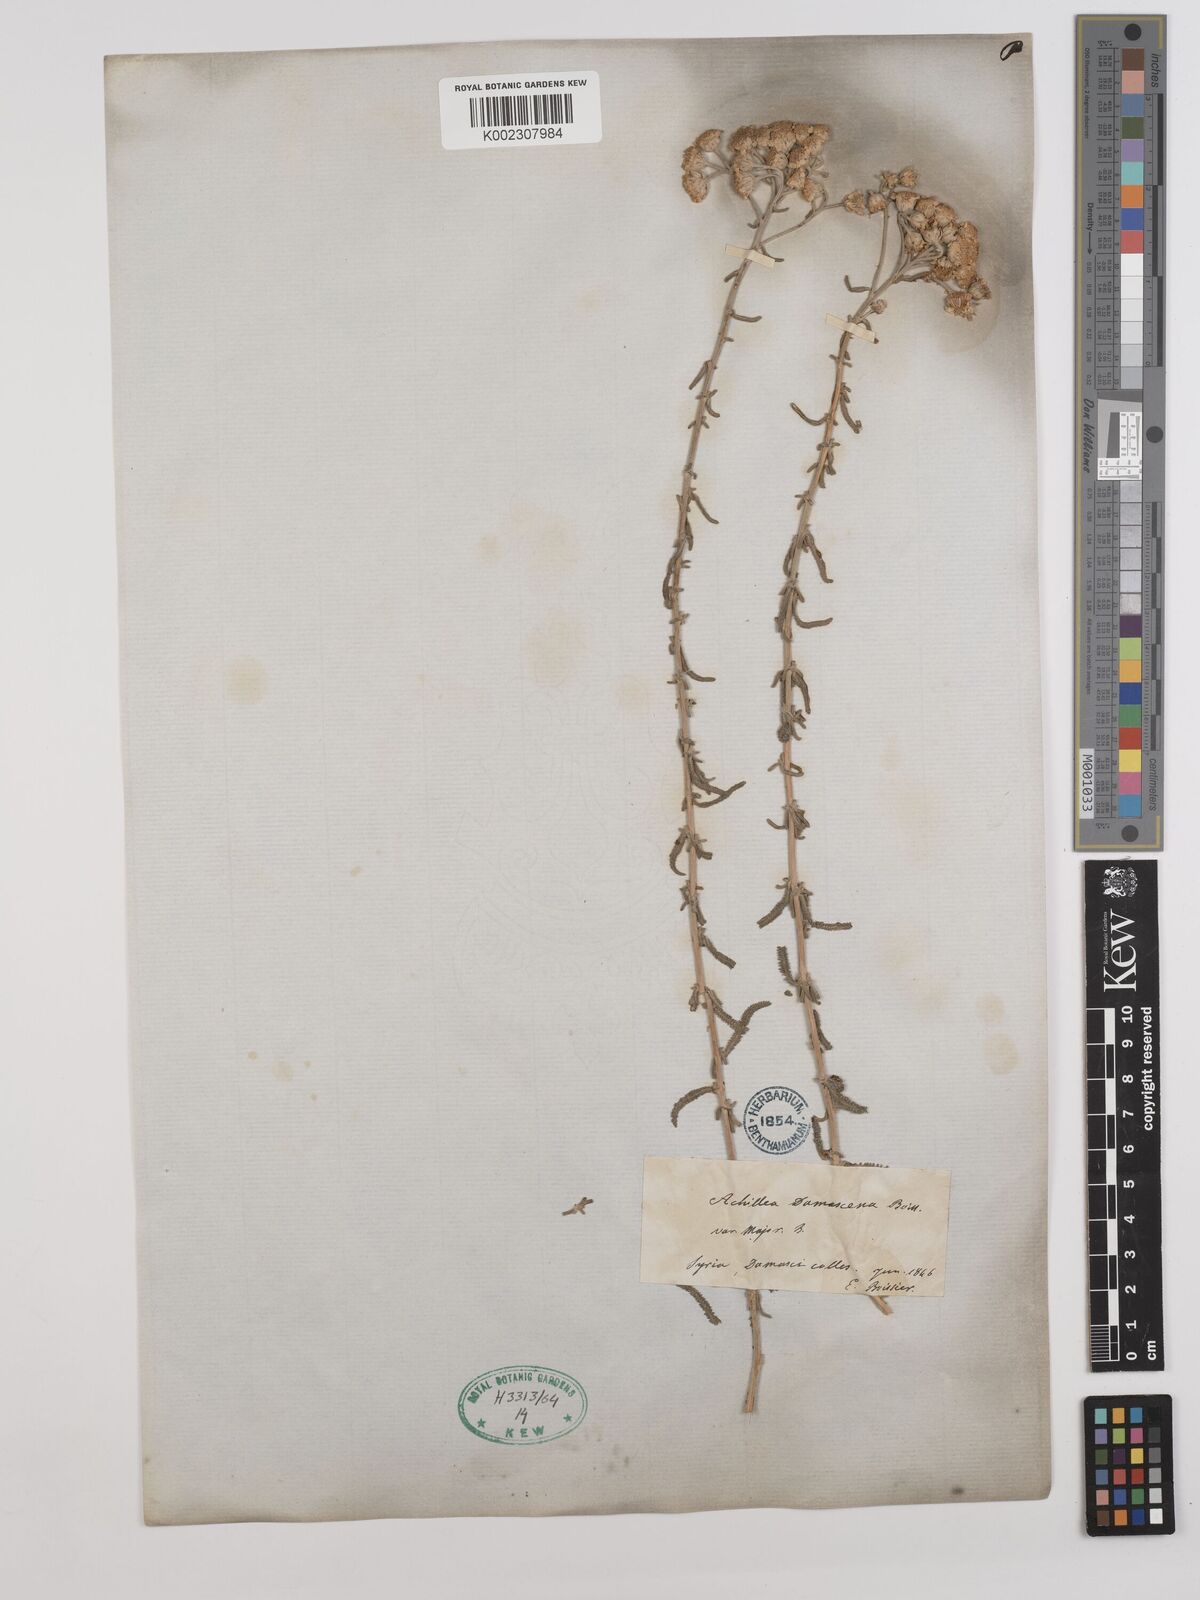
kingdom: Plantae
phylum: Tracheophyta
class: Magnoliopsida
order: Asterales
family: Asteraceae
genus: Achillea
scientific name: Achillea falcata
